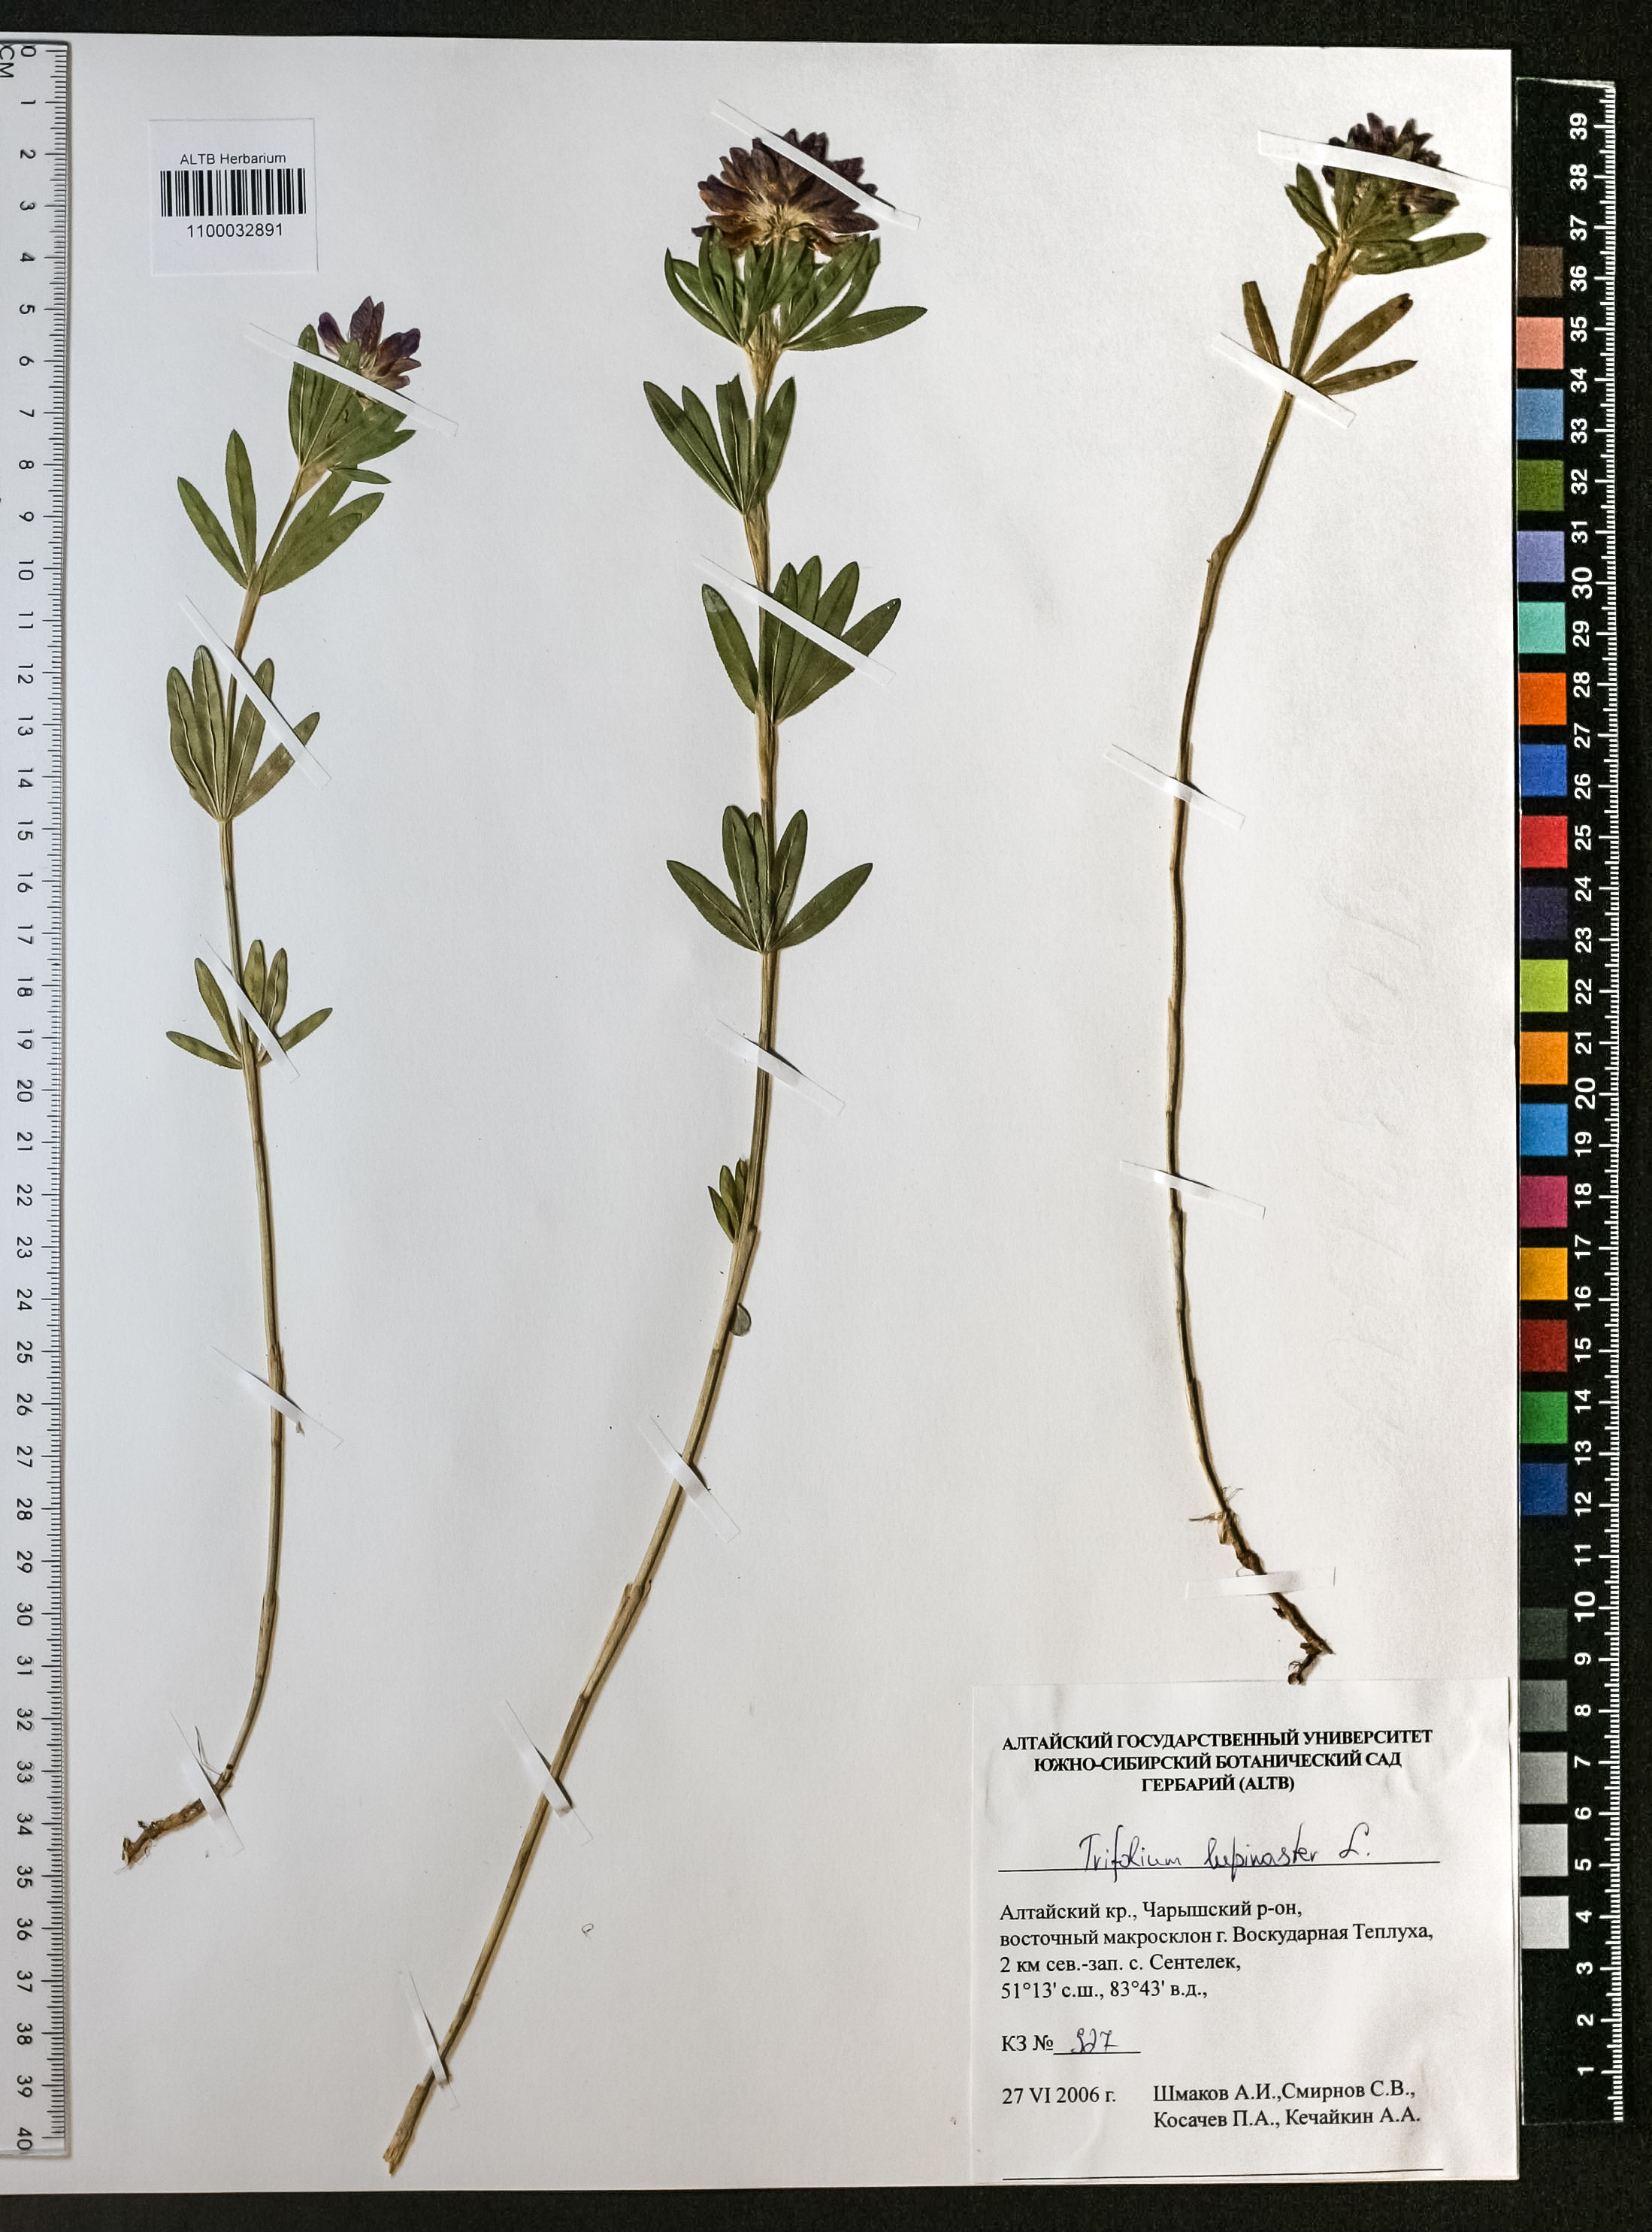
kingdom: Plantae
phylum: Tracheophyta
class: Magnoliopsida
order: Fabales
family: Fabaceae
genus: Trifolium
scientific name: Trifolium lupinaster
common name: Lupine clover
